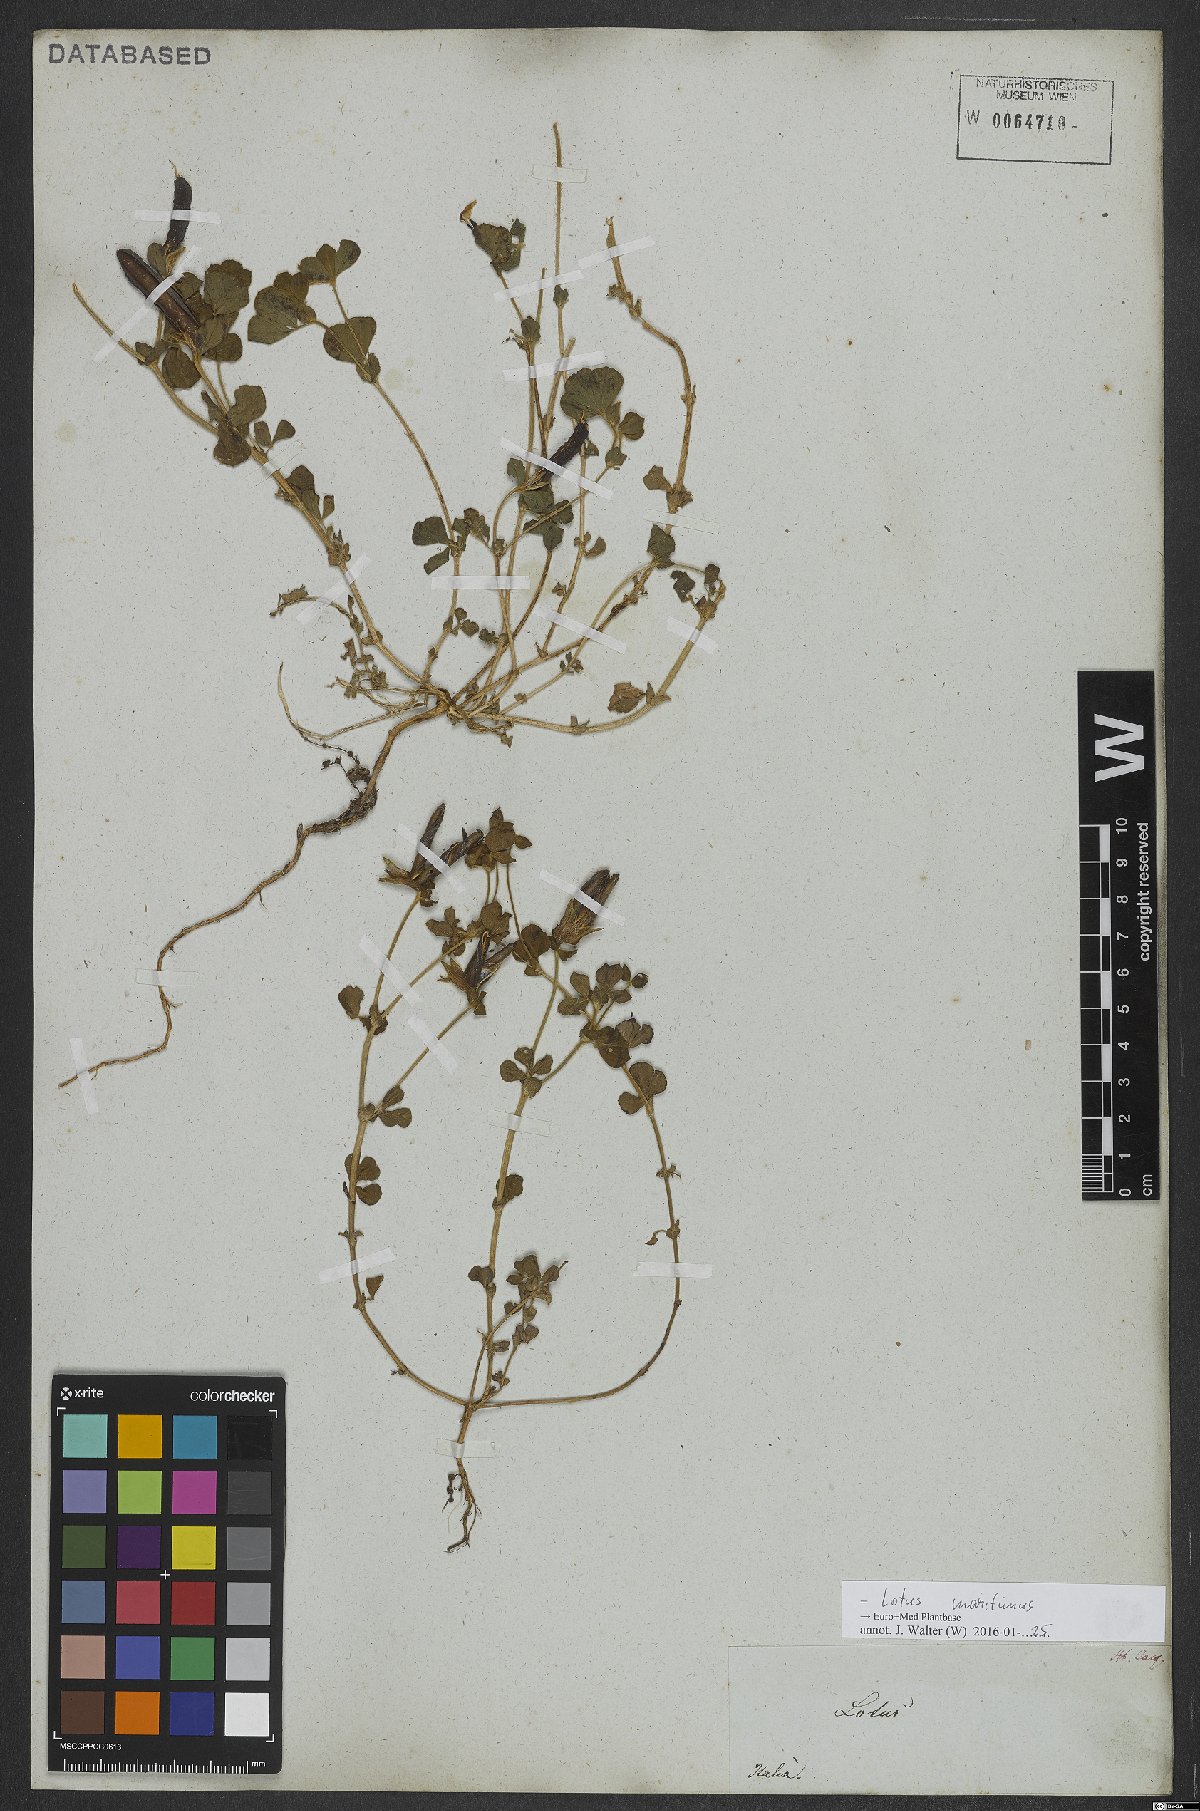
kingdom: Plantae
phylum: Tracheophyta
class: Magnoliopsida
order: Fabales
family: Fabaceae
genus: Lotus
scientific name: Lotus maritimus
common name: Dragon's-teeth
